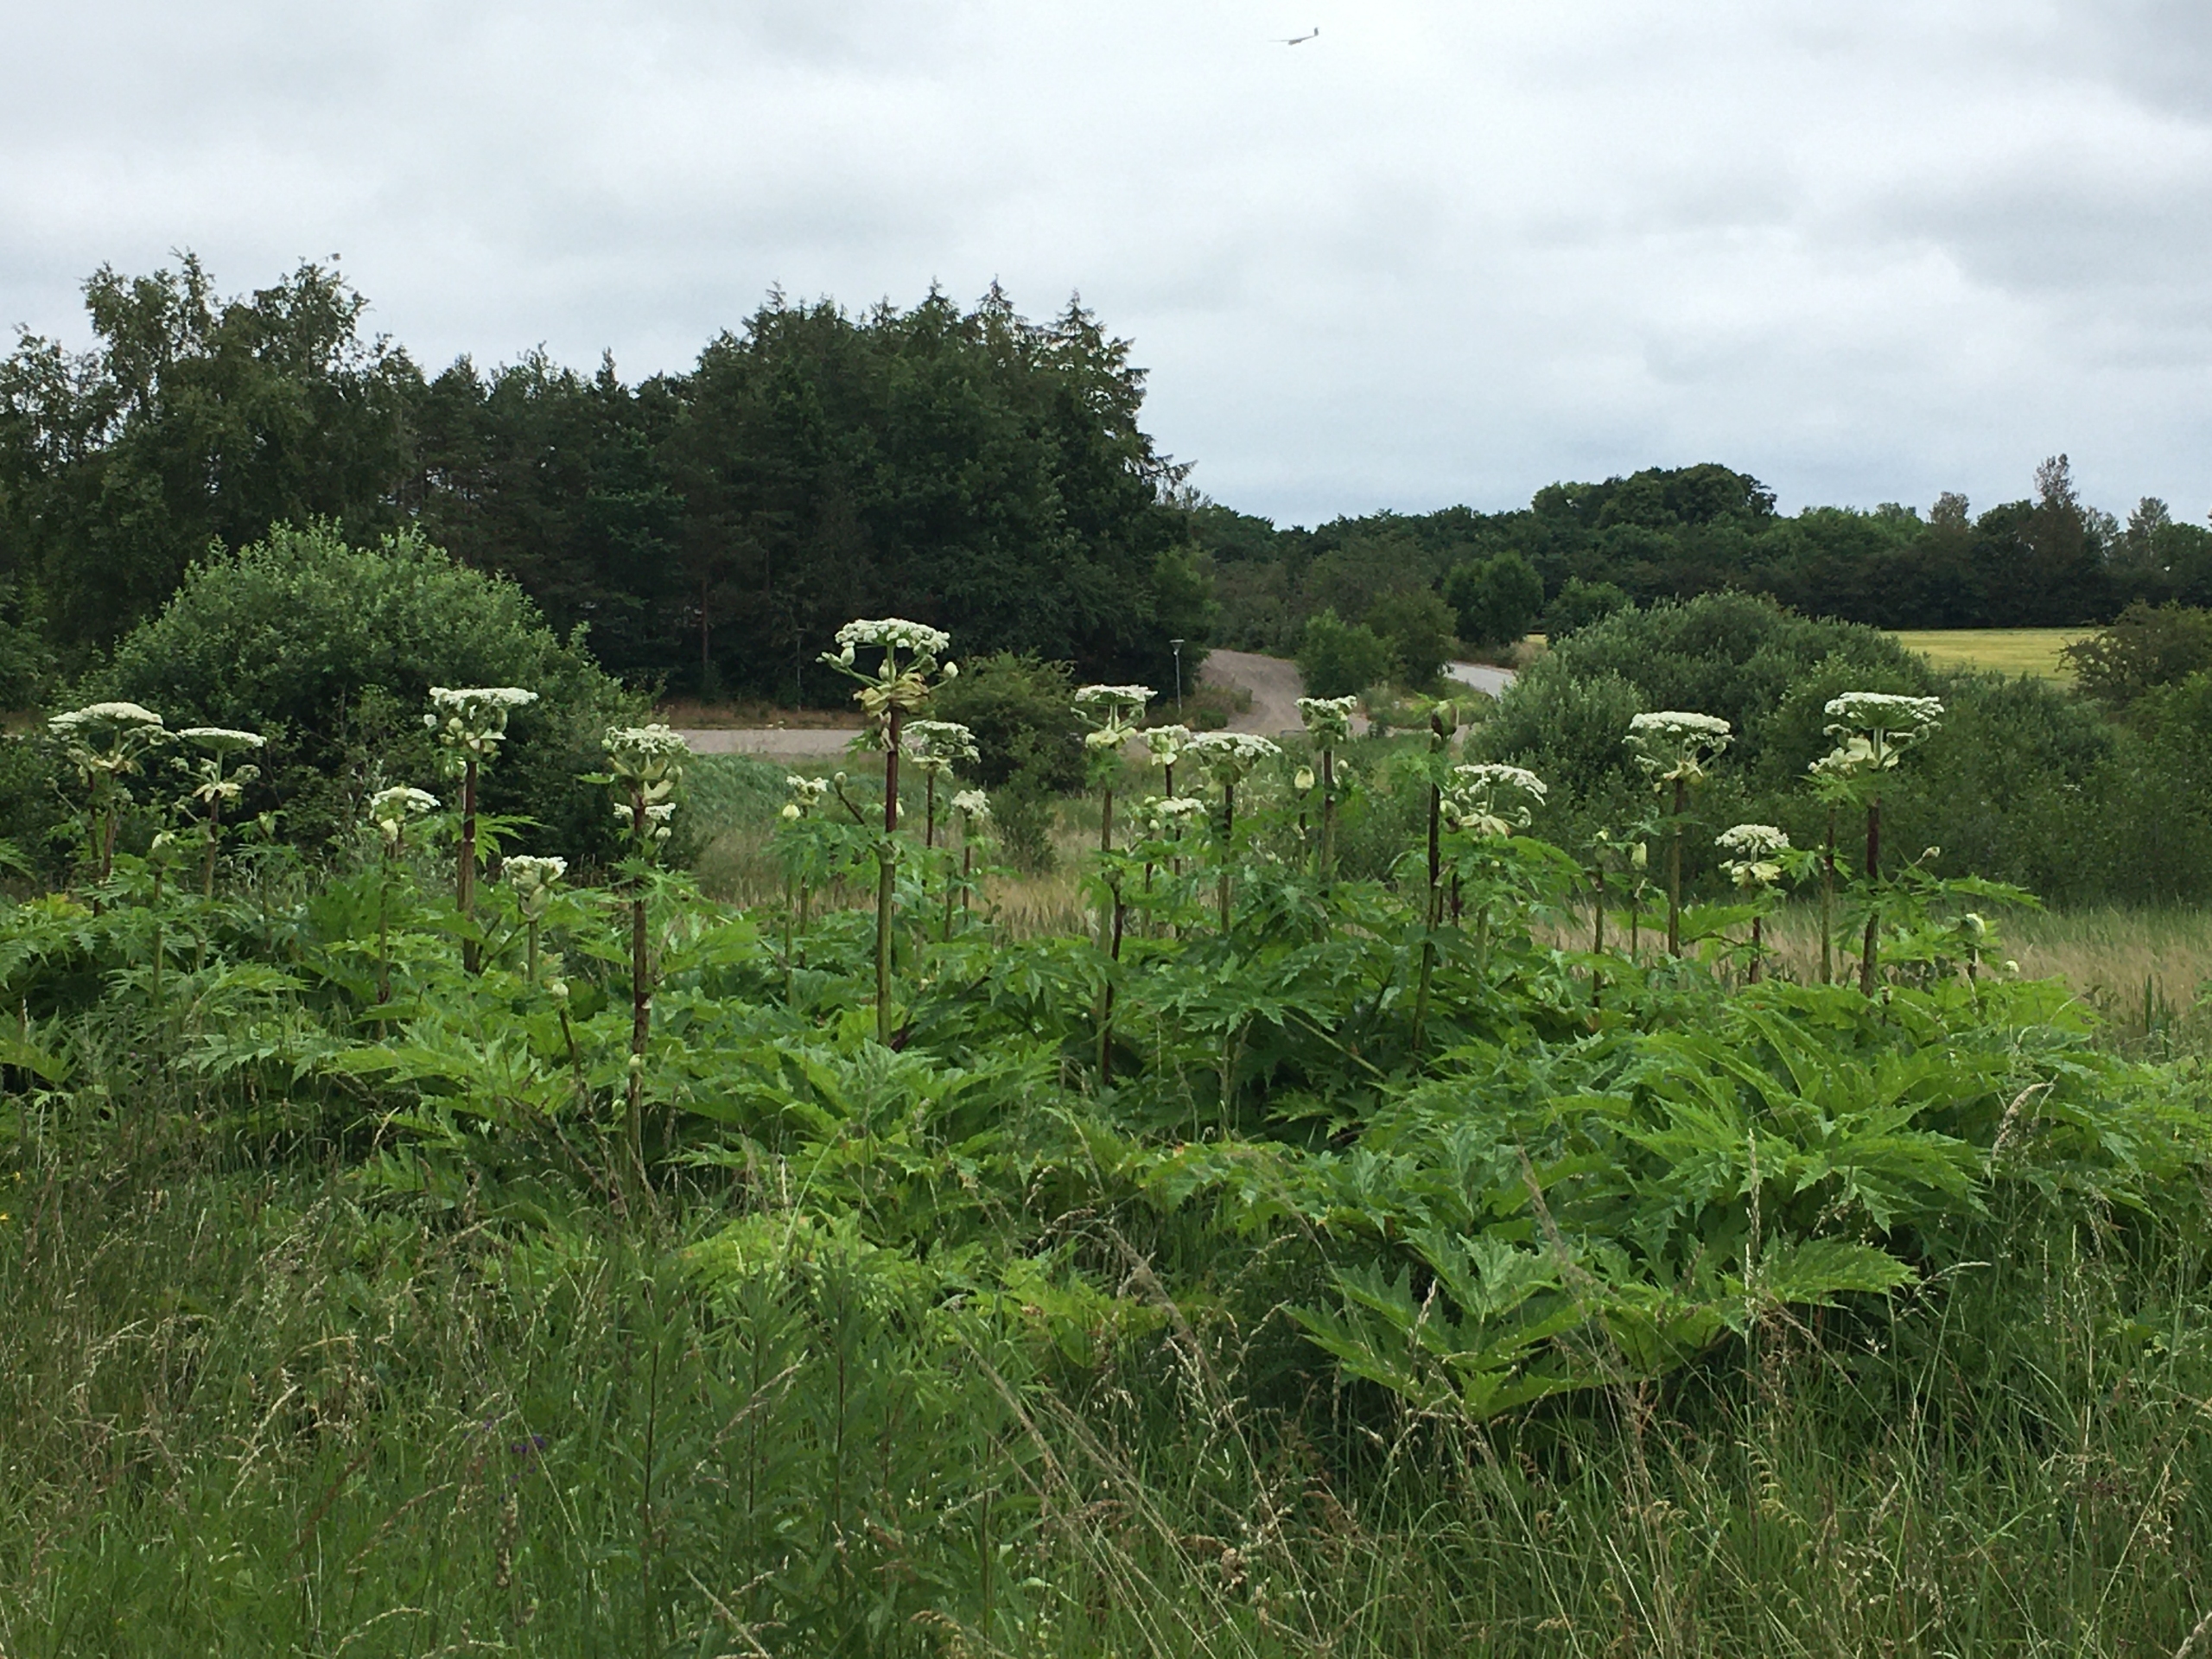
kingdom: Plantae
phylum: Tracheophyta
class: Magnoliopsida
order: Apiales
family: Apiaceae
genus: Heracleum
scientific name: Heracleum mantegazzianum
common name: Kæmpe-bjørneklo
